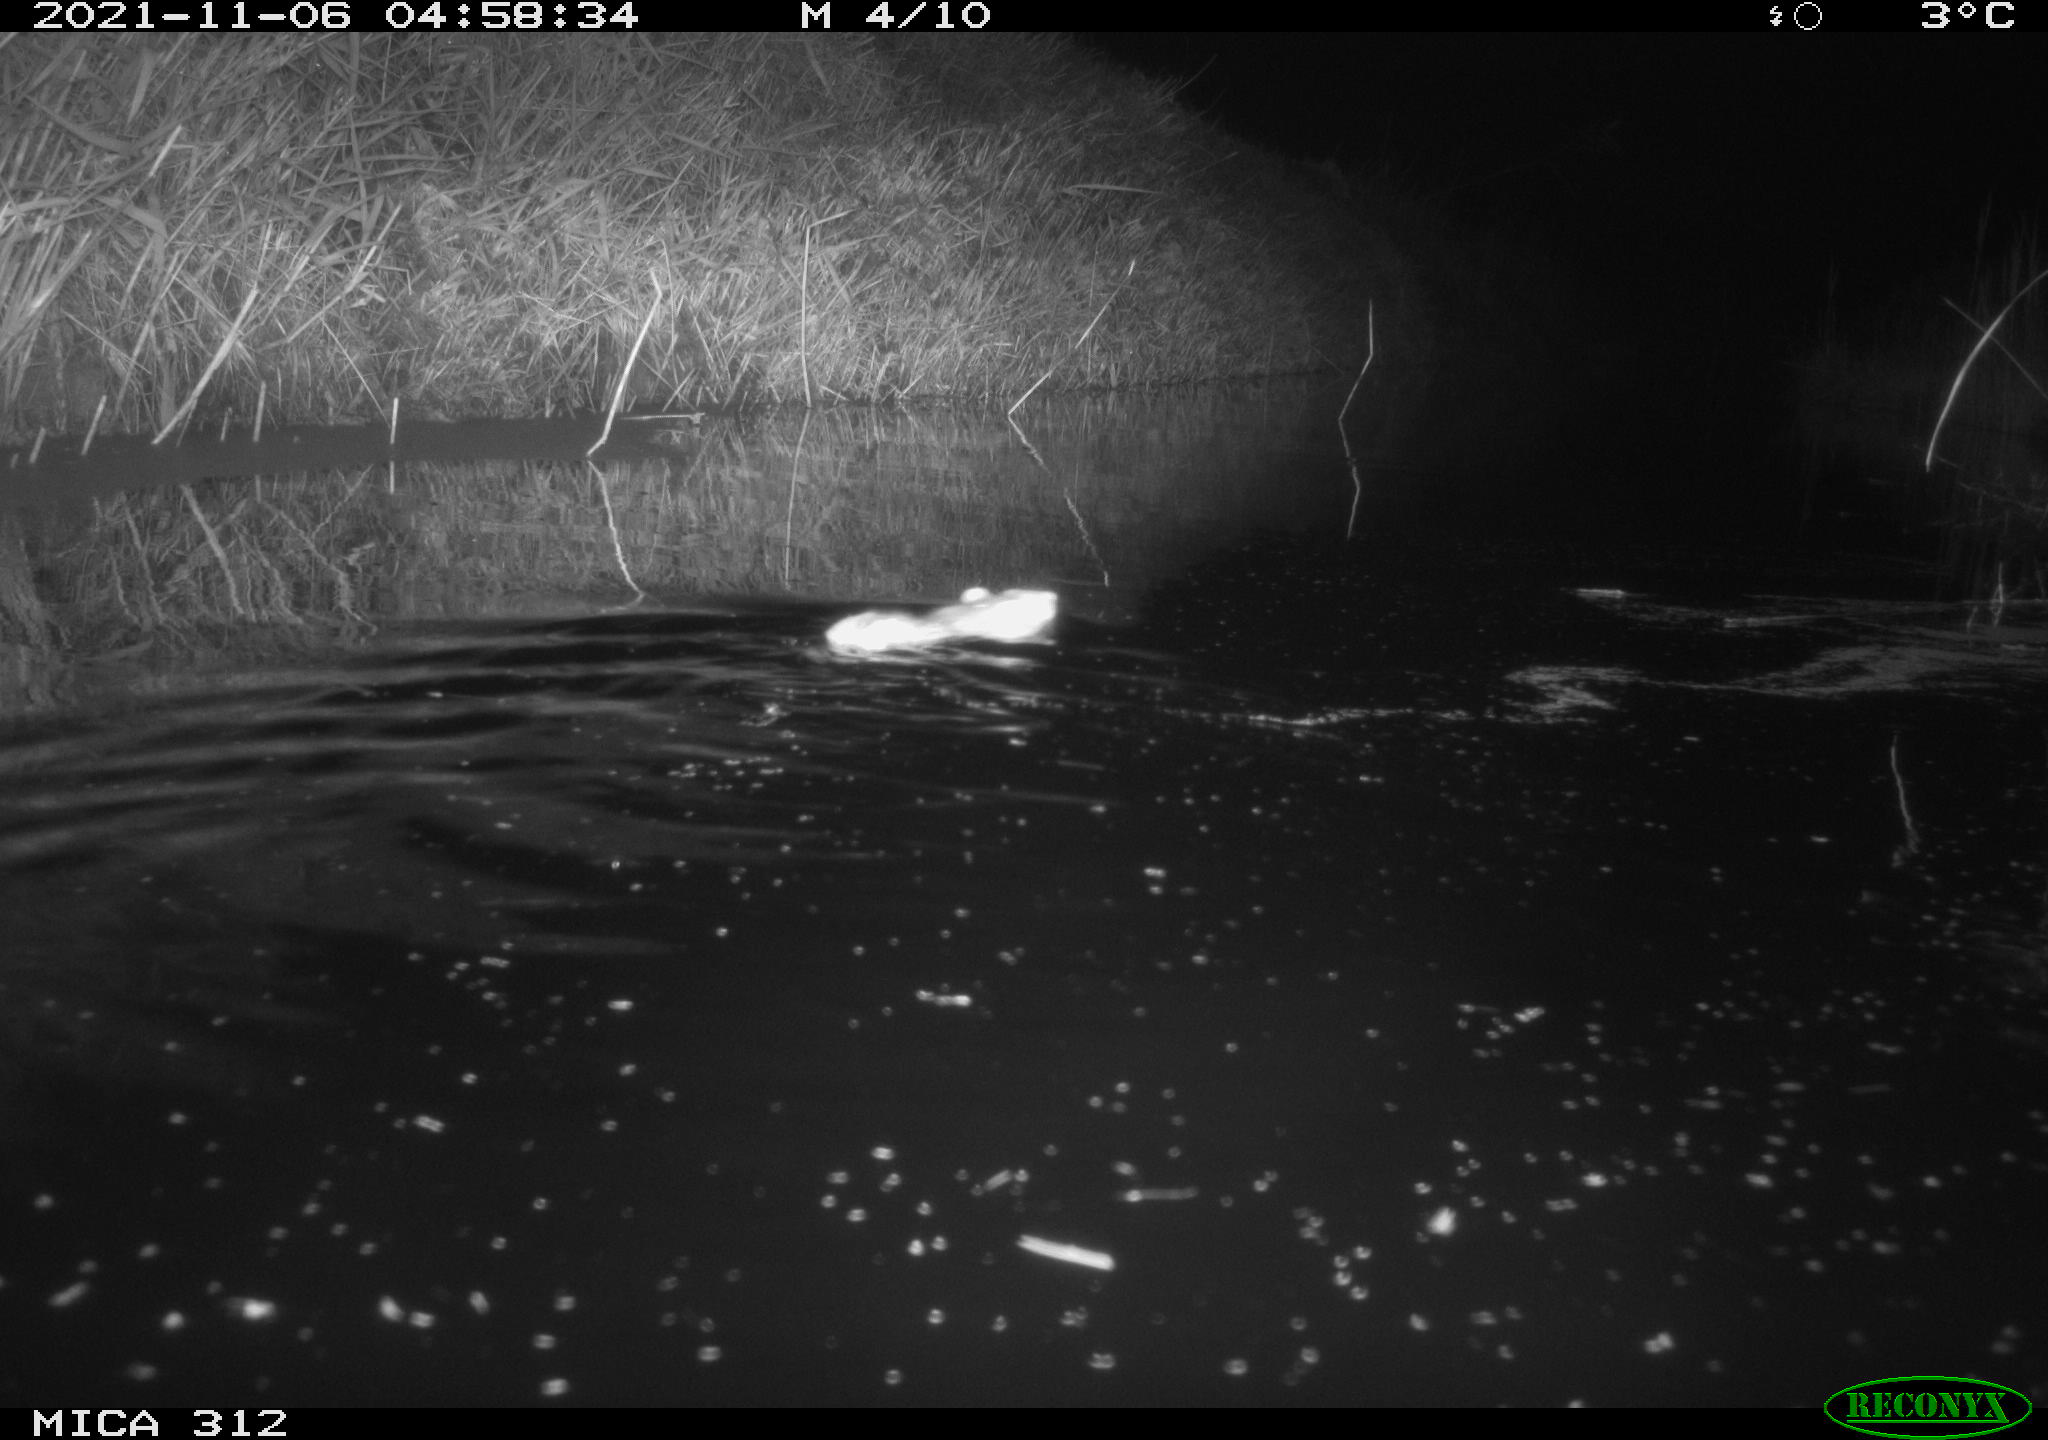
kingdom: Animalia
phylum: Chordata
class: Mammalia
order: Rodentia
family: Muridae
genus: Rattus
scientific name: Rattus norvegicus
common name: Brown rat
